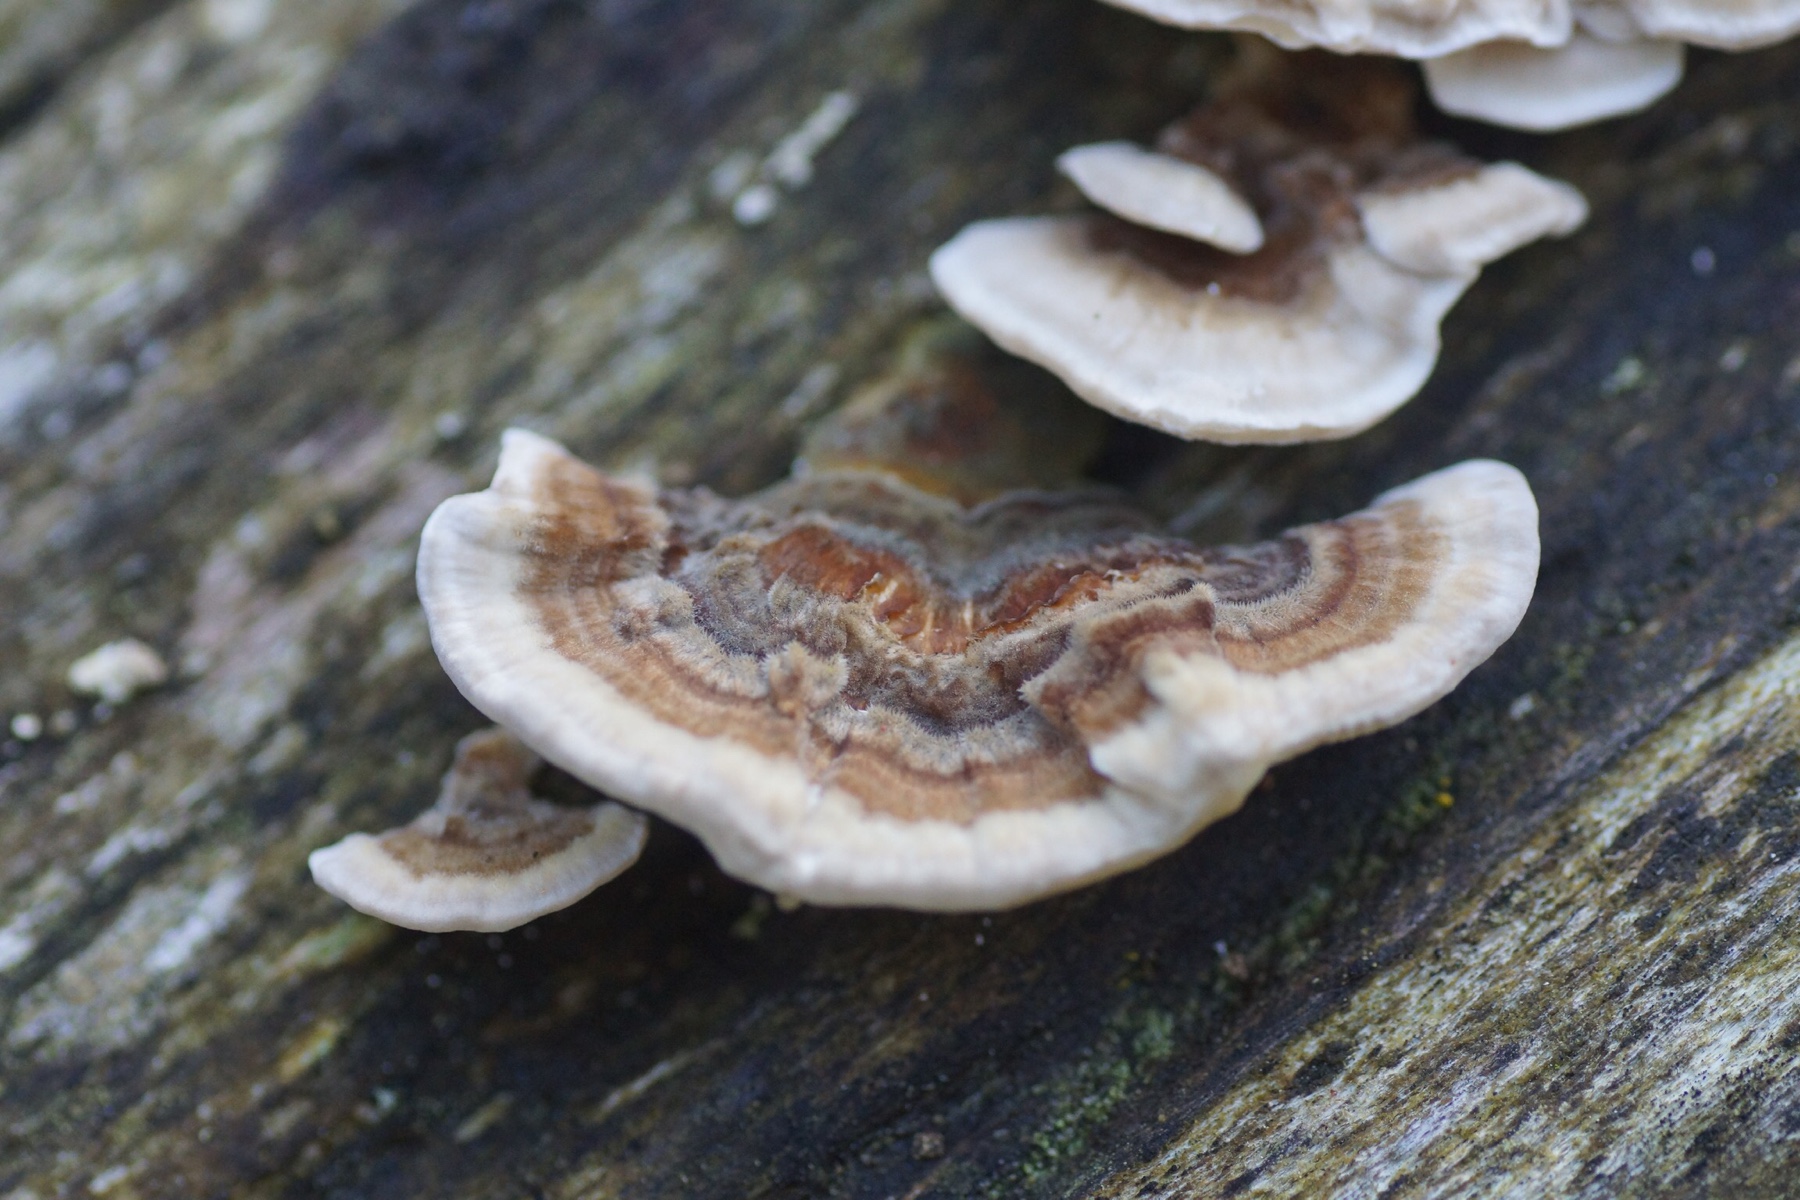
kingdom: Fungi
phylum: Basidiomycota
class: Agaricomycetes
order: Polyporales
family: Polyporaceae
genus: Trametes
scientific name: Trametes versicolor
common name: broget læderporesvamp
